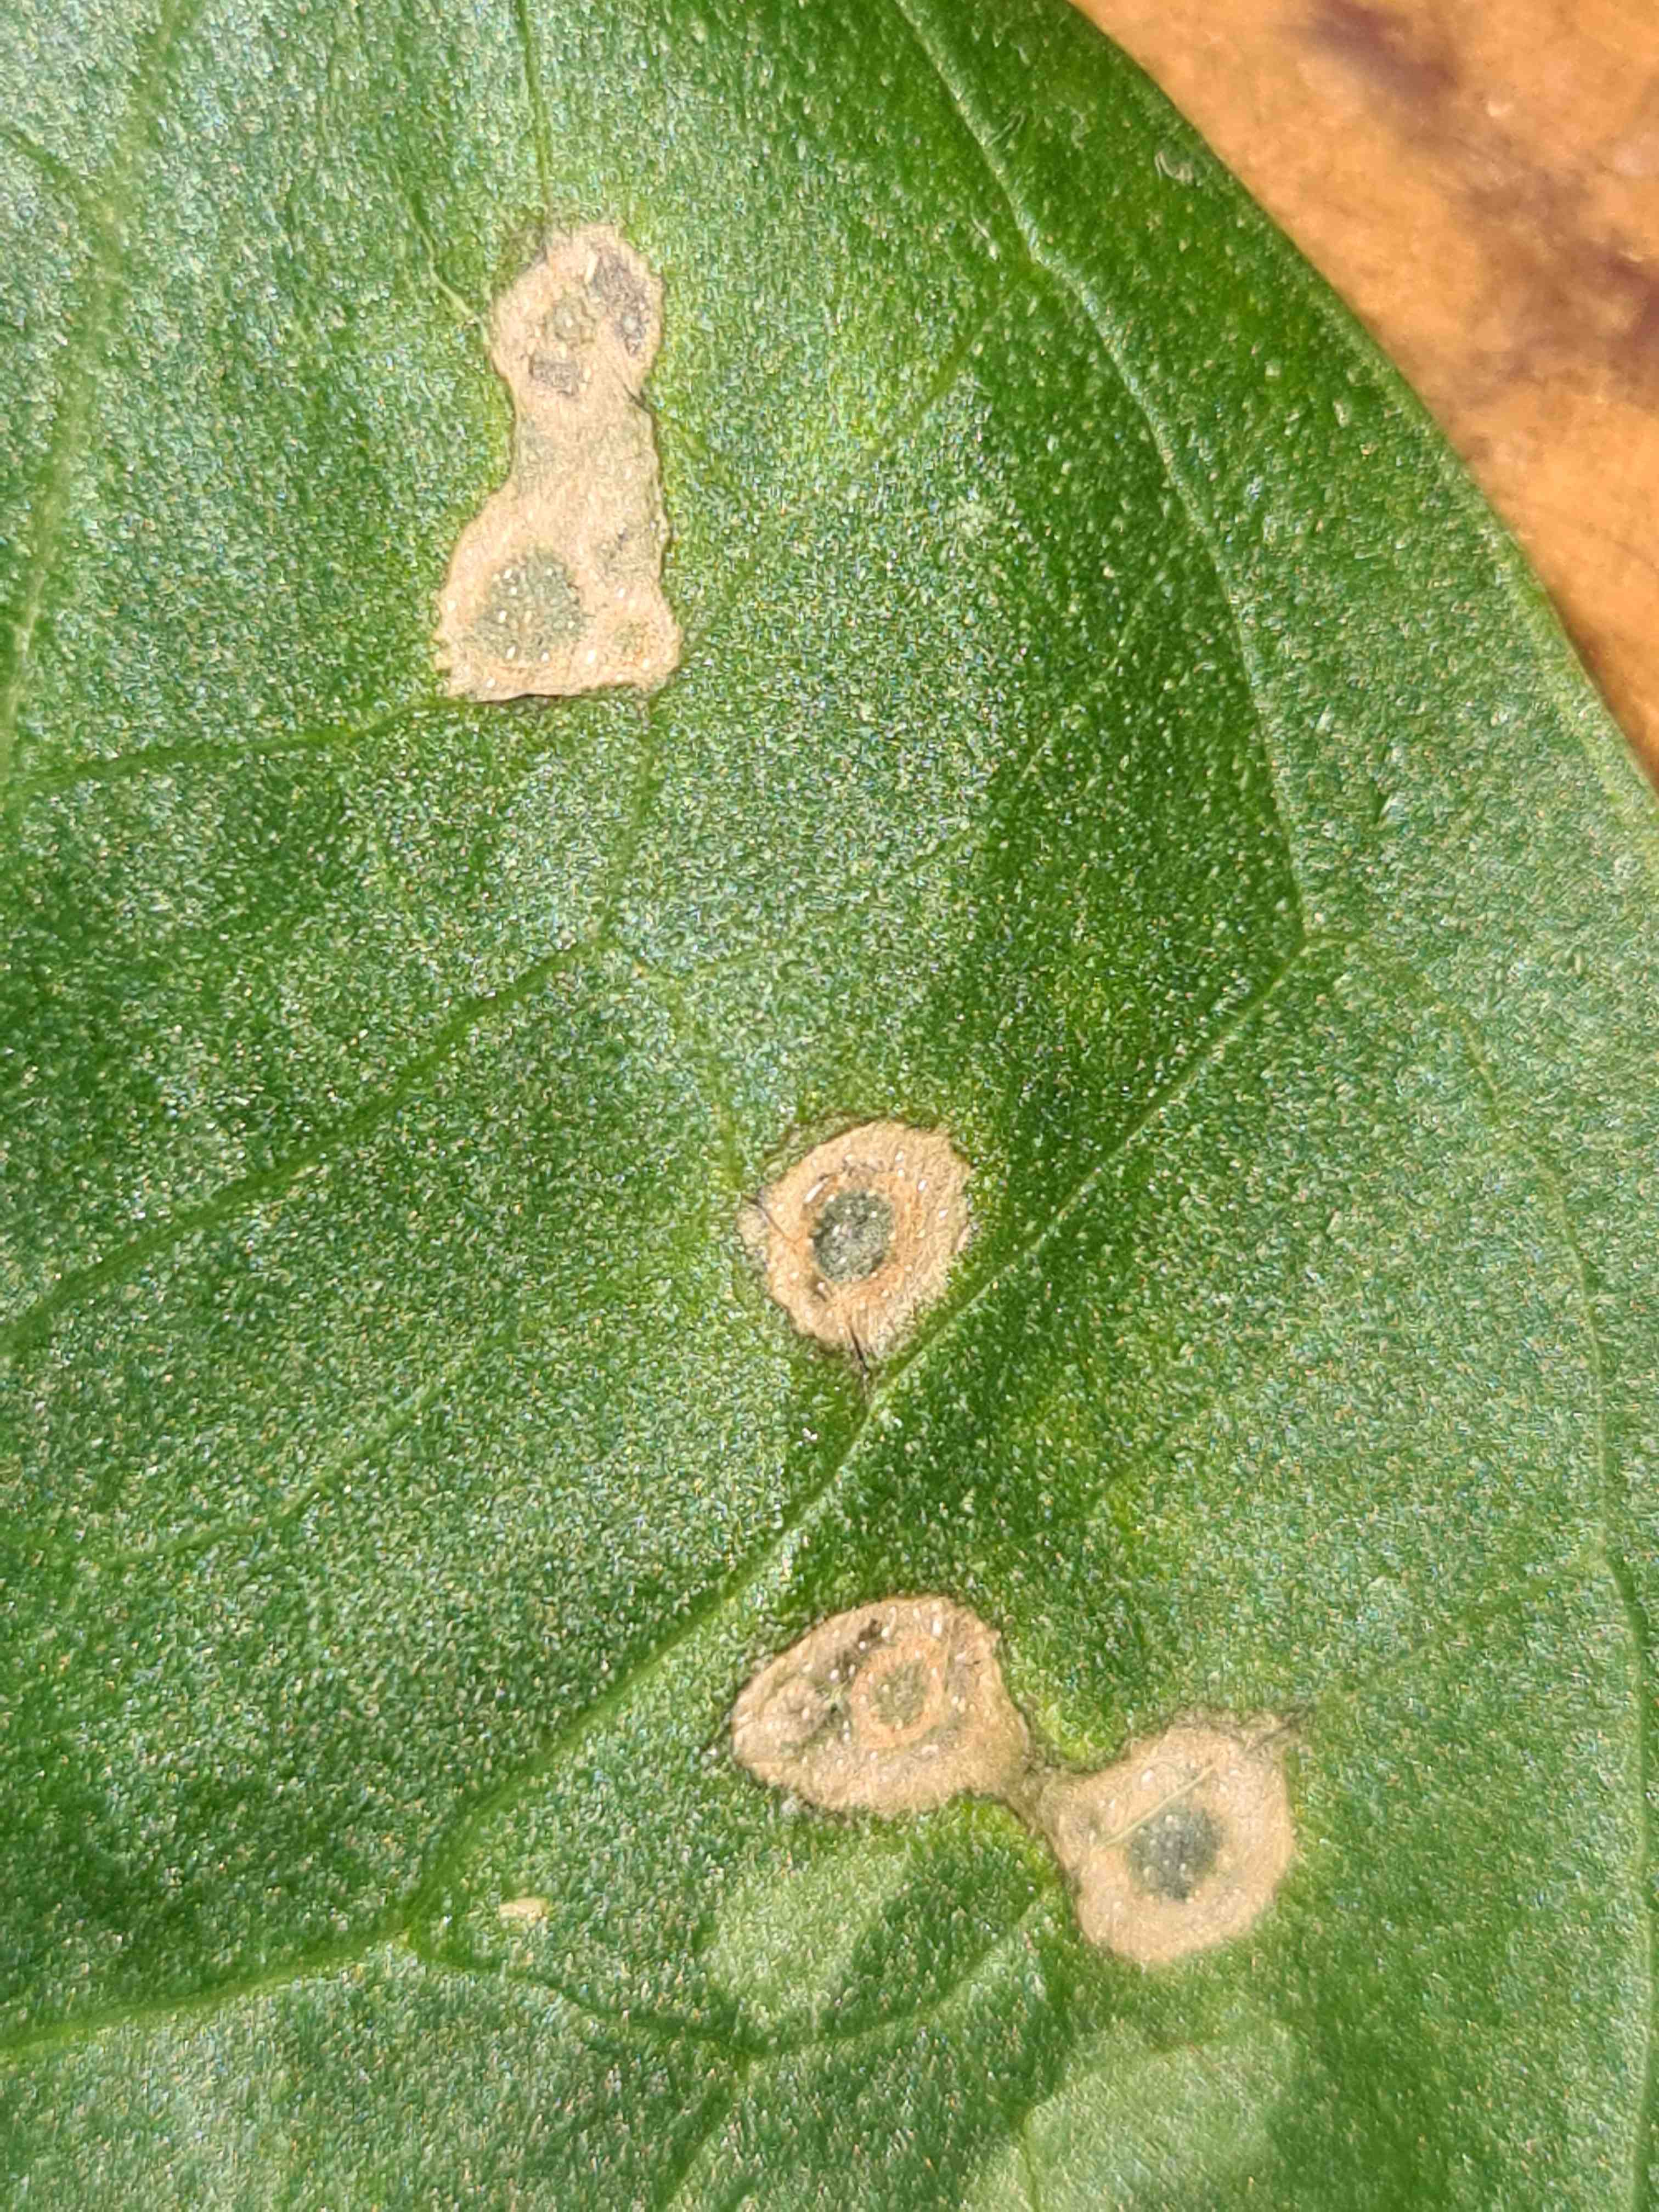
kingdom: Fungi
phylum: Ascomycota
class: Sordariomycetes
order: Glomerellales
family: Plectosphaerellaceae
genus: Spermosporina
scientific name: Spermosporina aricola
